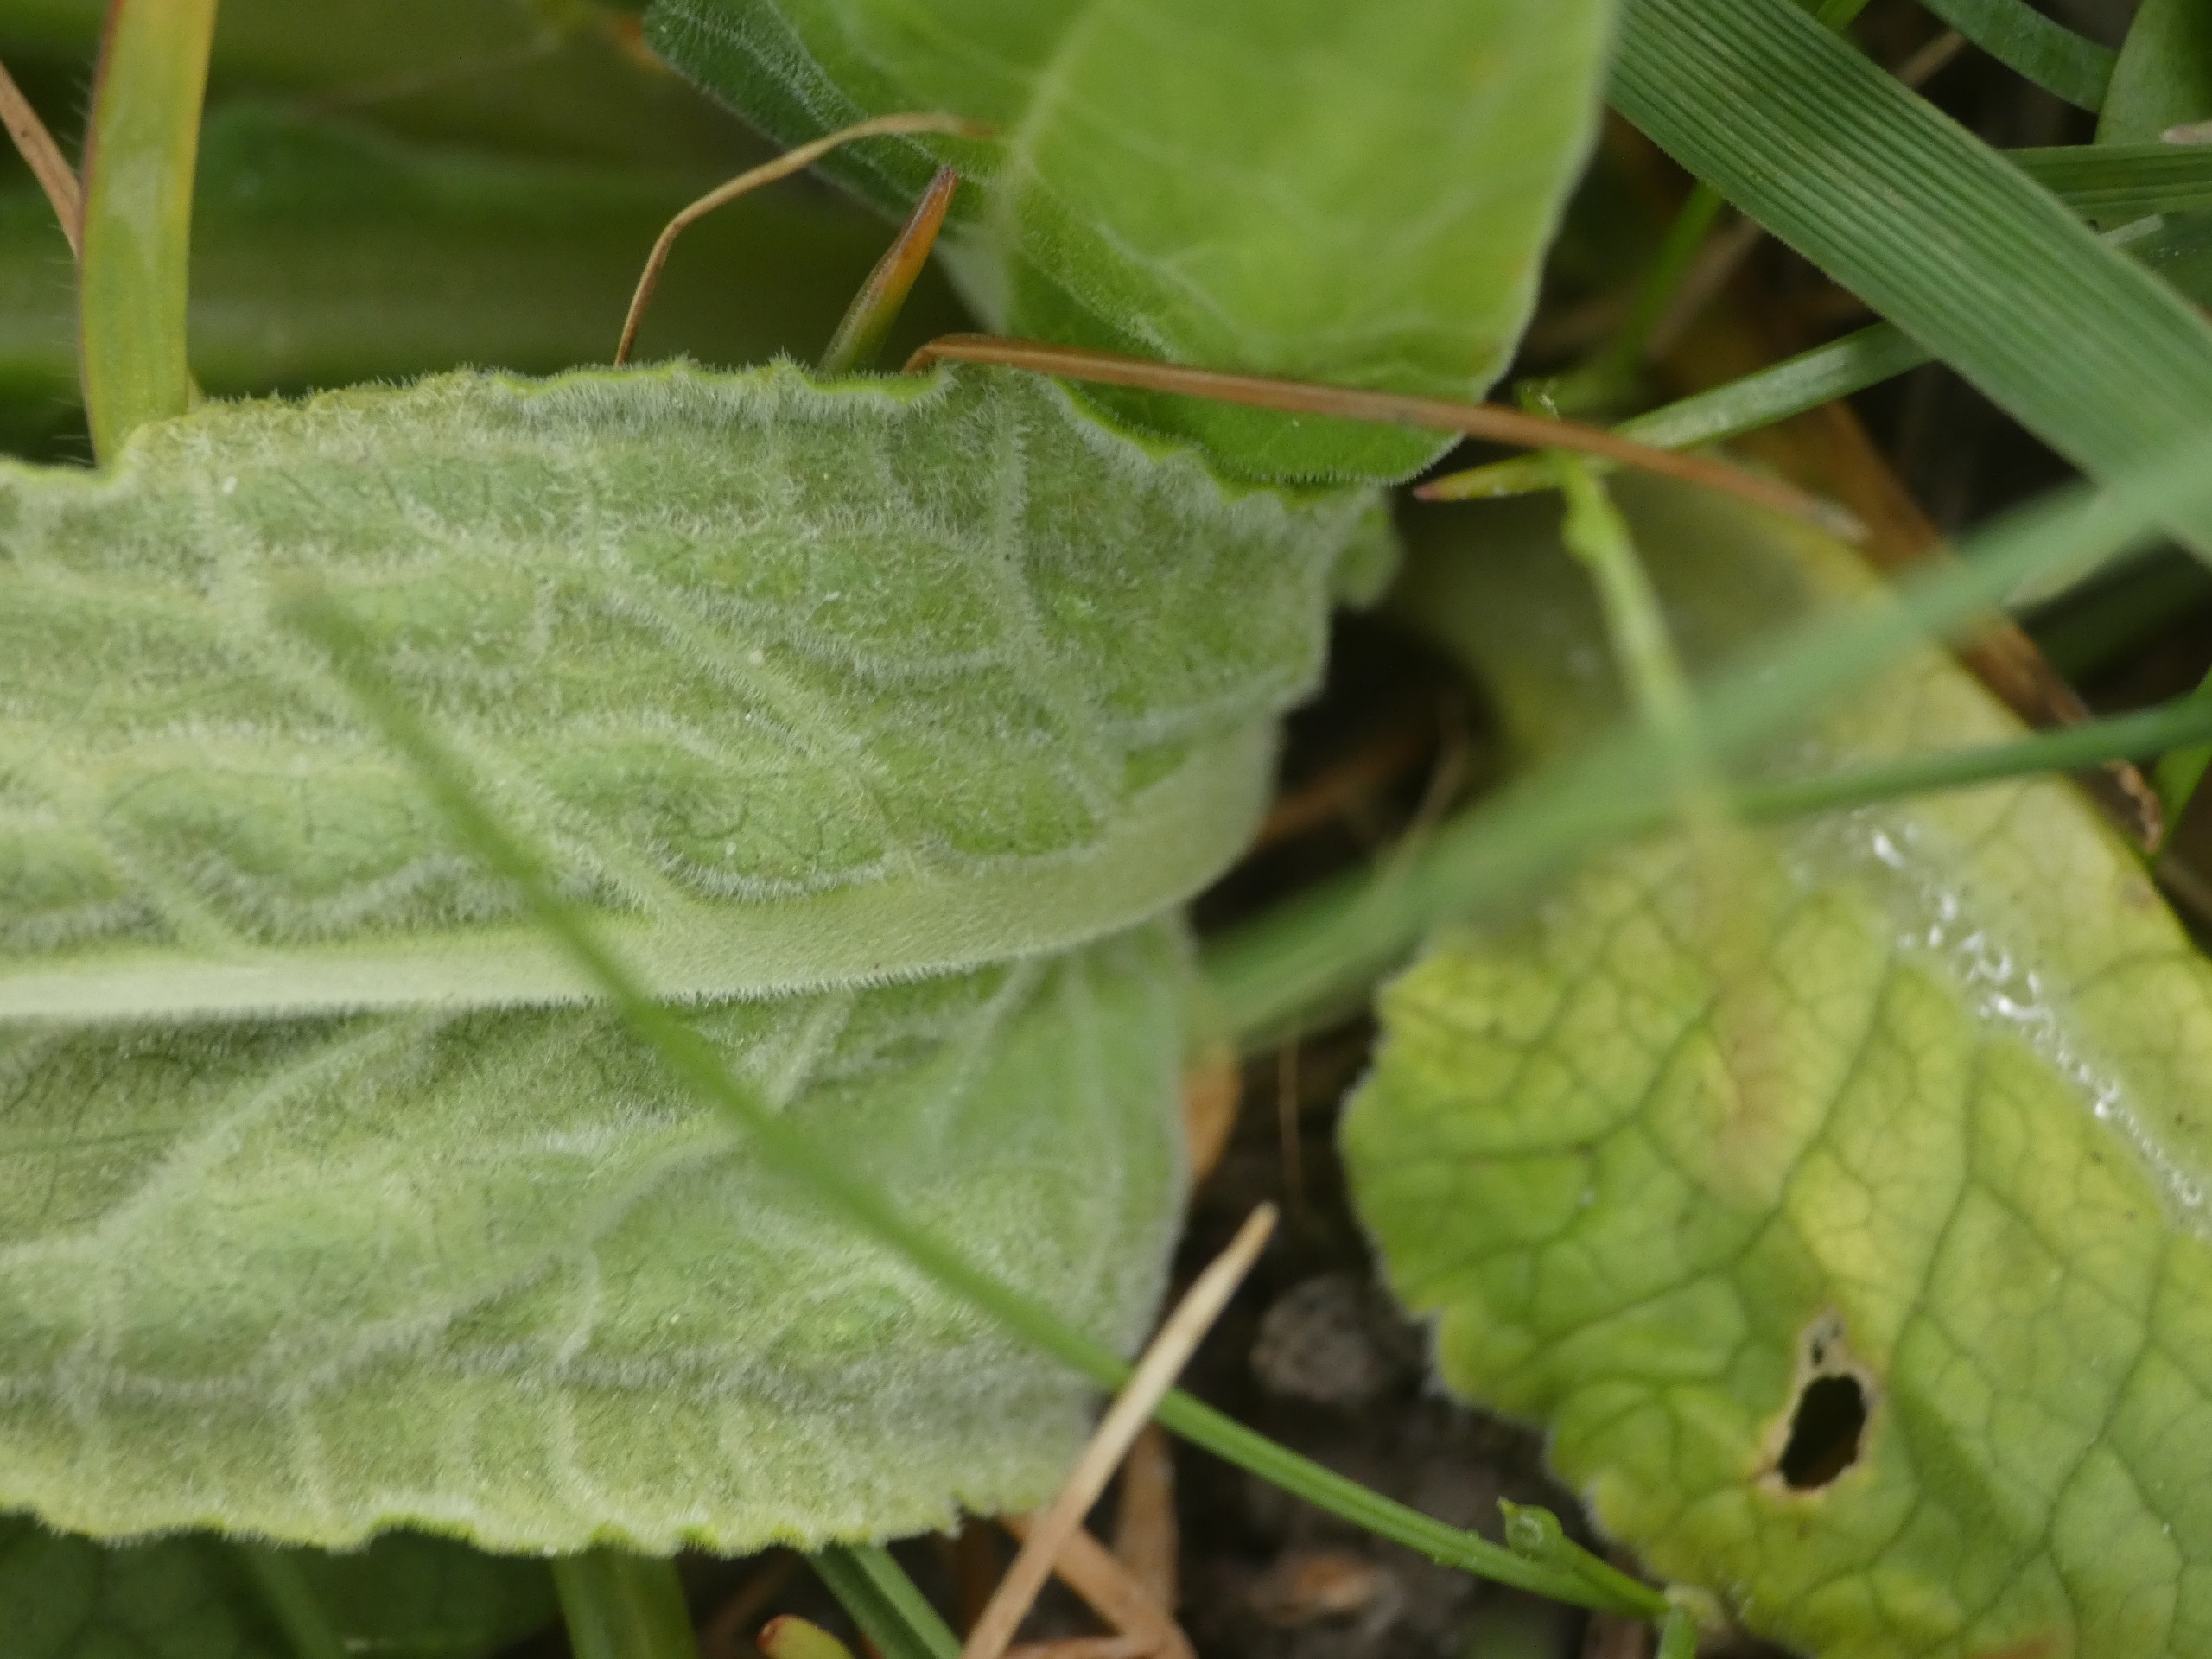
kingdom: Plantae
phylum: Tracheophyta
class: Magnoliopsida
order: Ericales
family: Primulaceae
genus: Primula
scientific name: Primula veris
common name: Hulkravet kodriver
